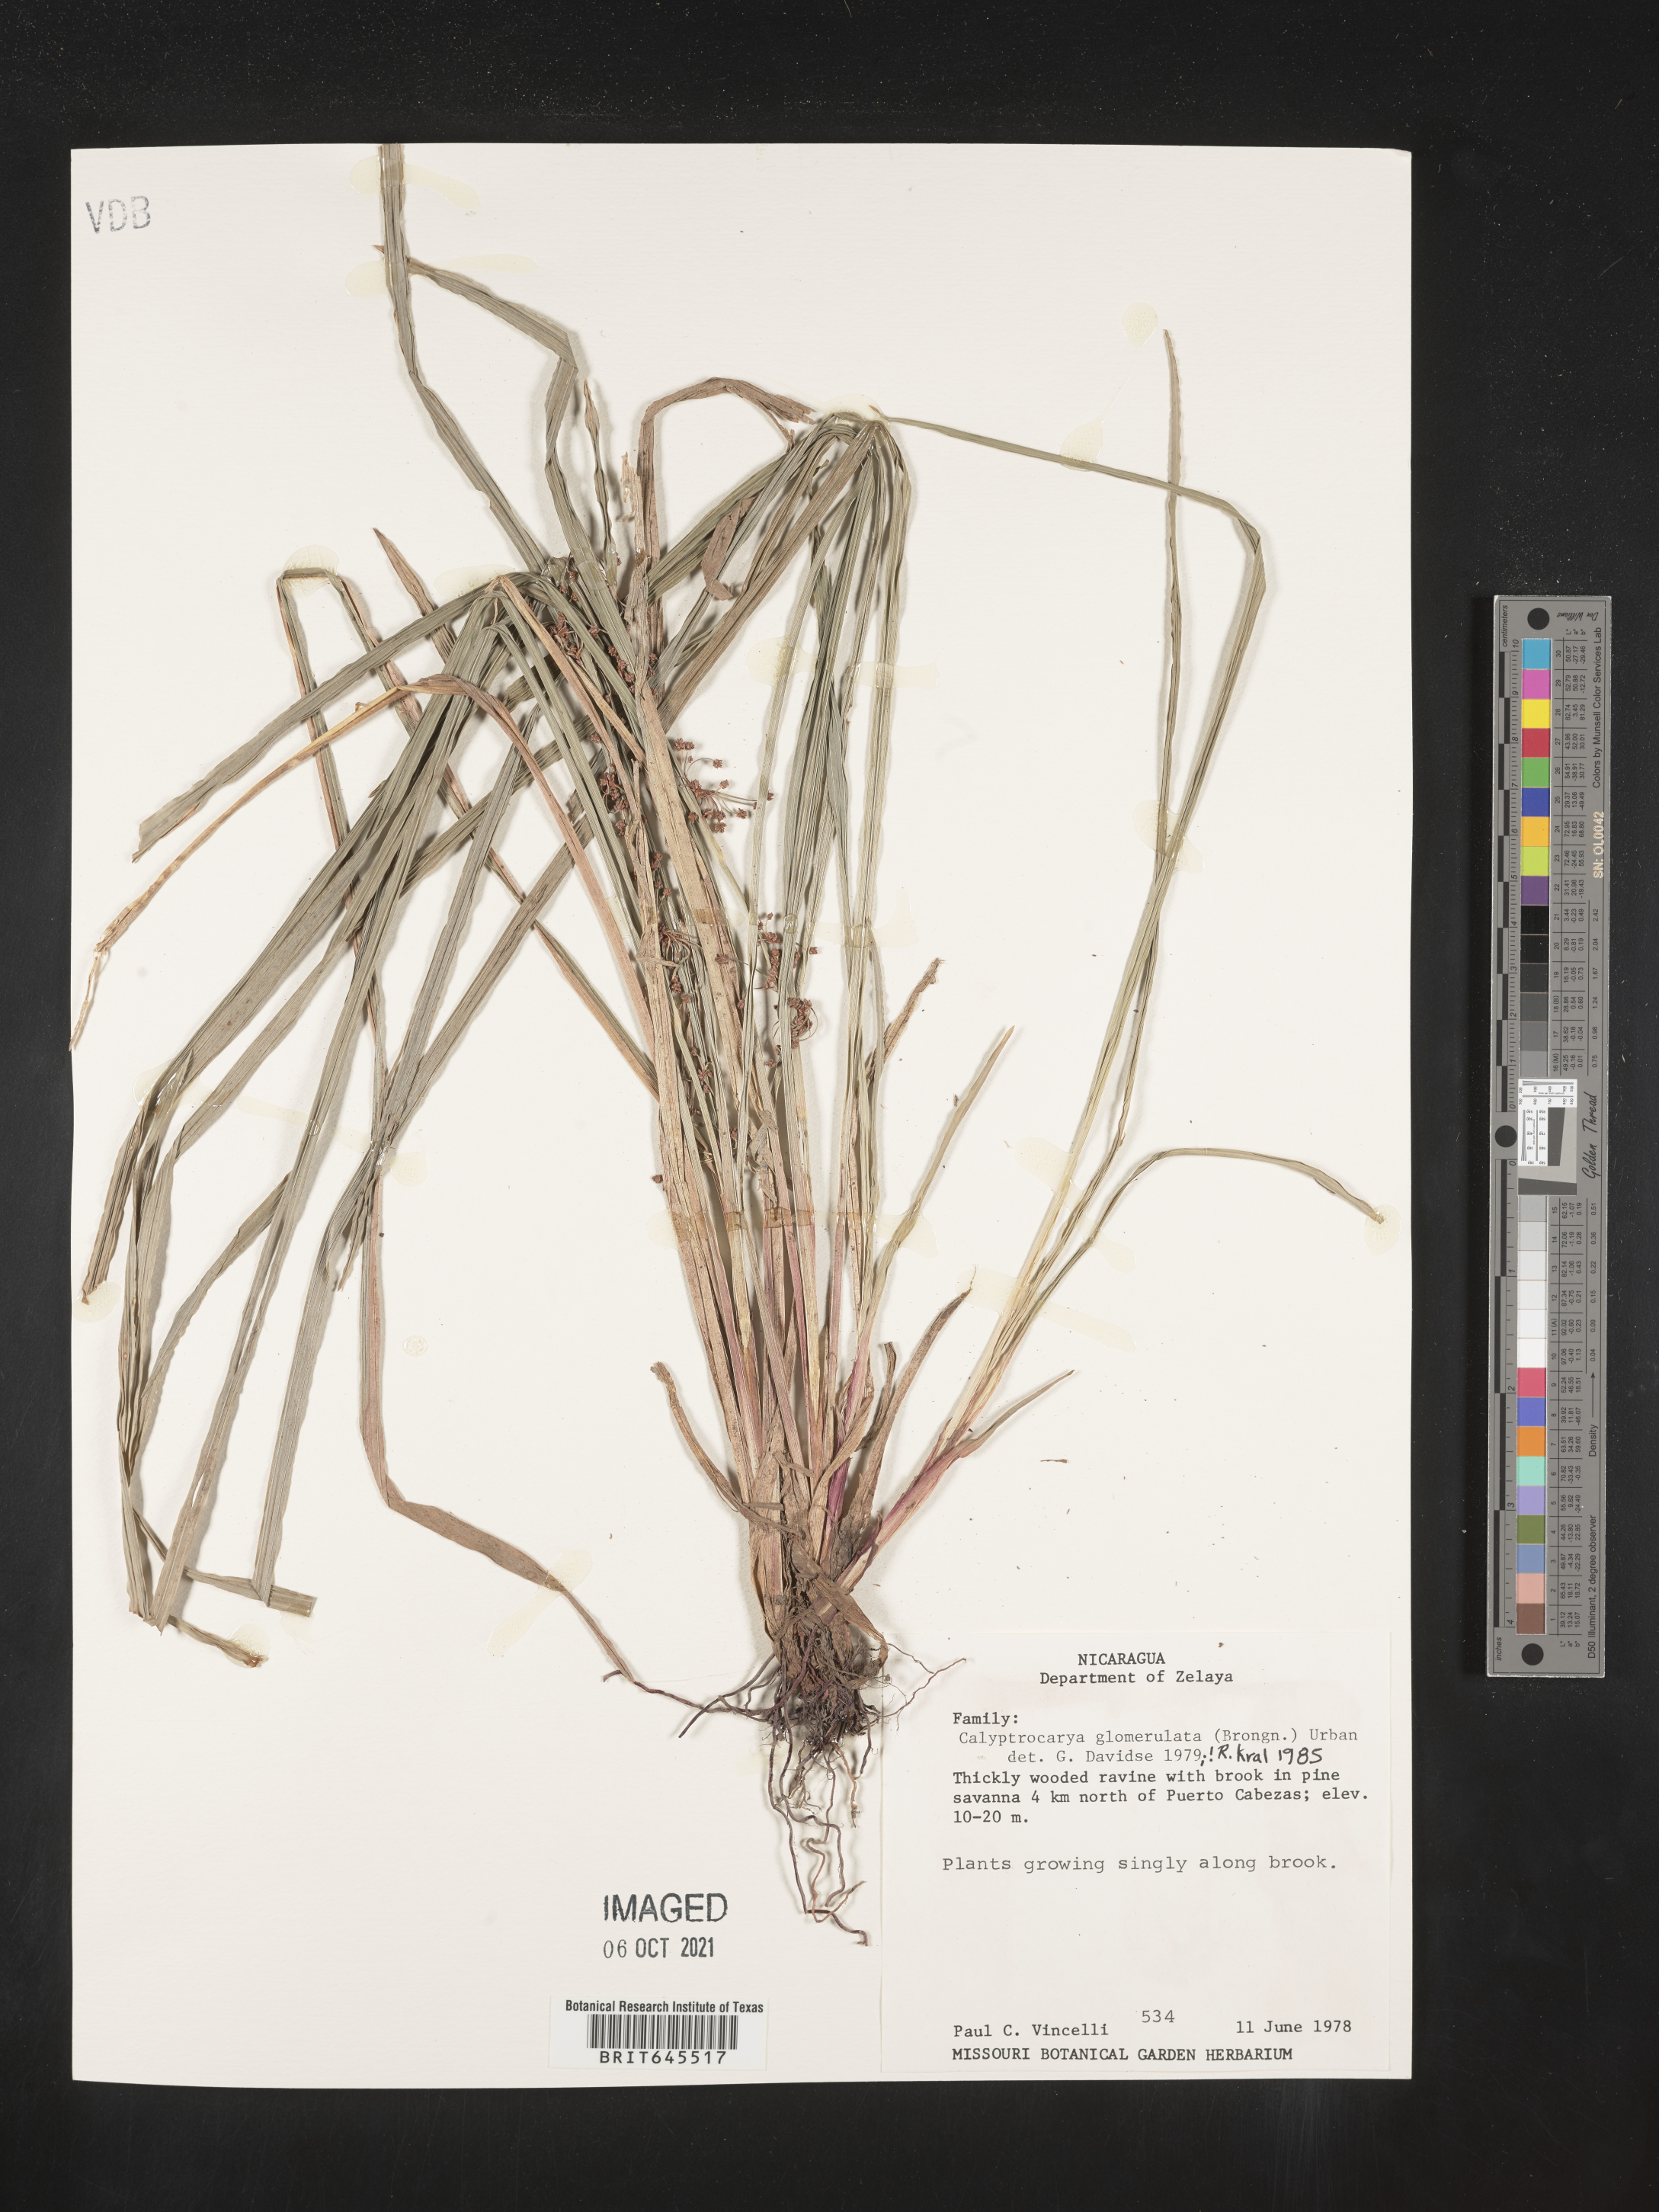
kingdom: Plantae
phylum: Tracheophyta
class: Liliopsida
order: Poales
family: Cyperaceae
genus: Calyptrocarya
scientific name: Calyptrocarya glomerulata
